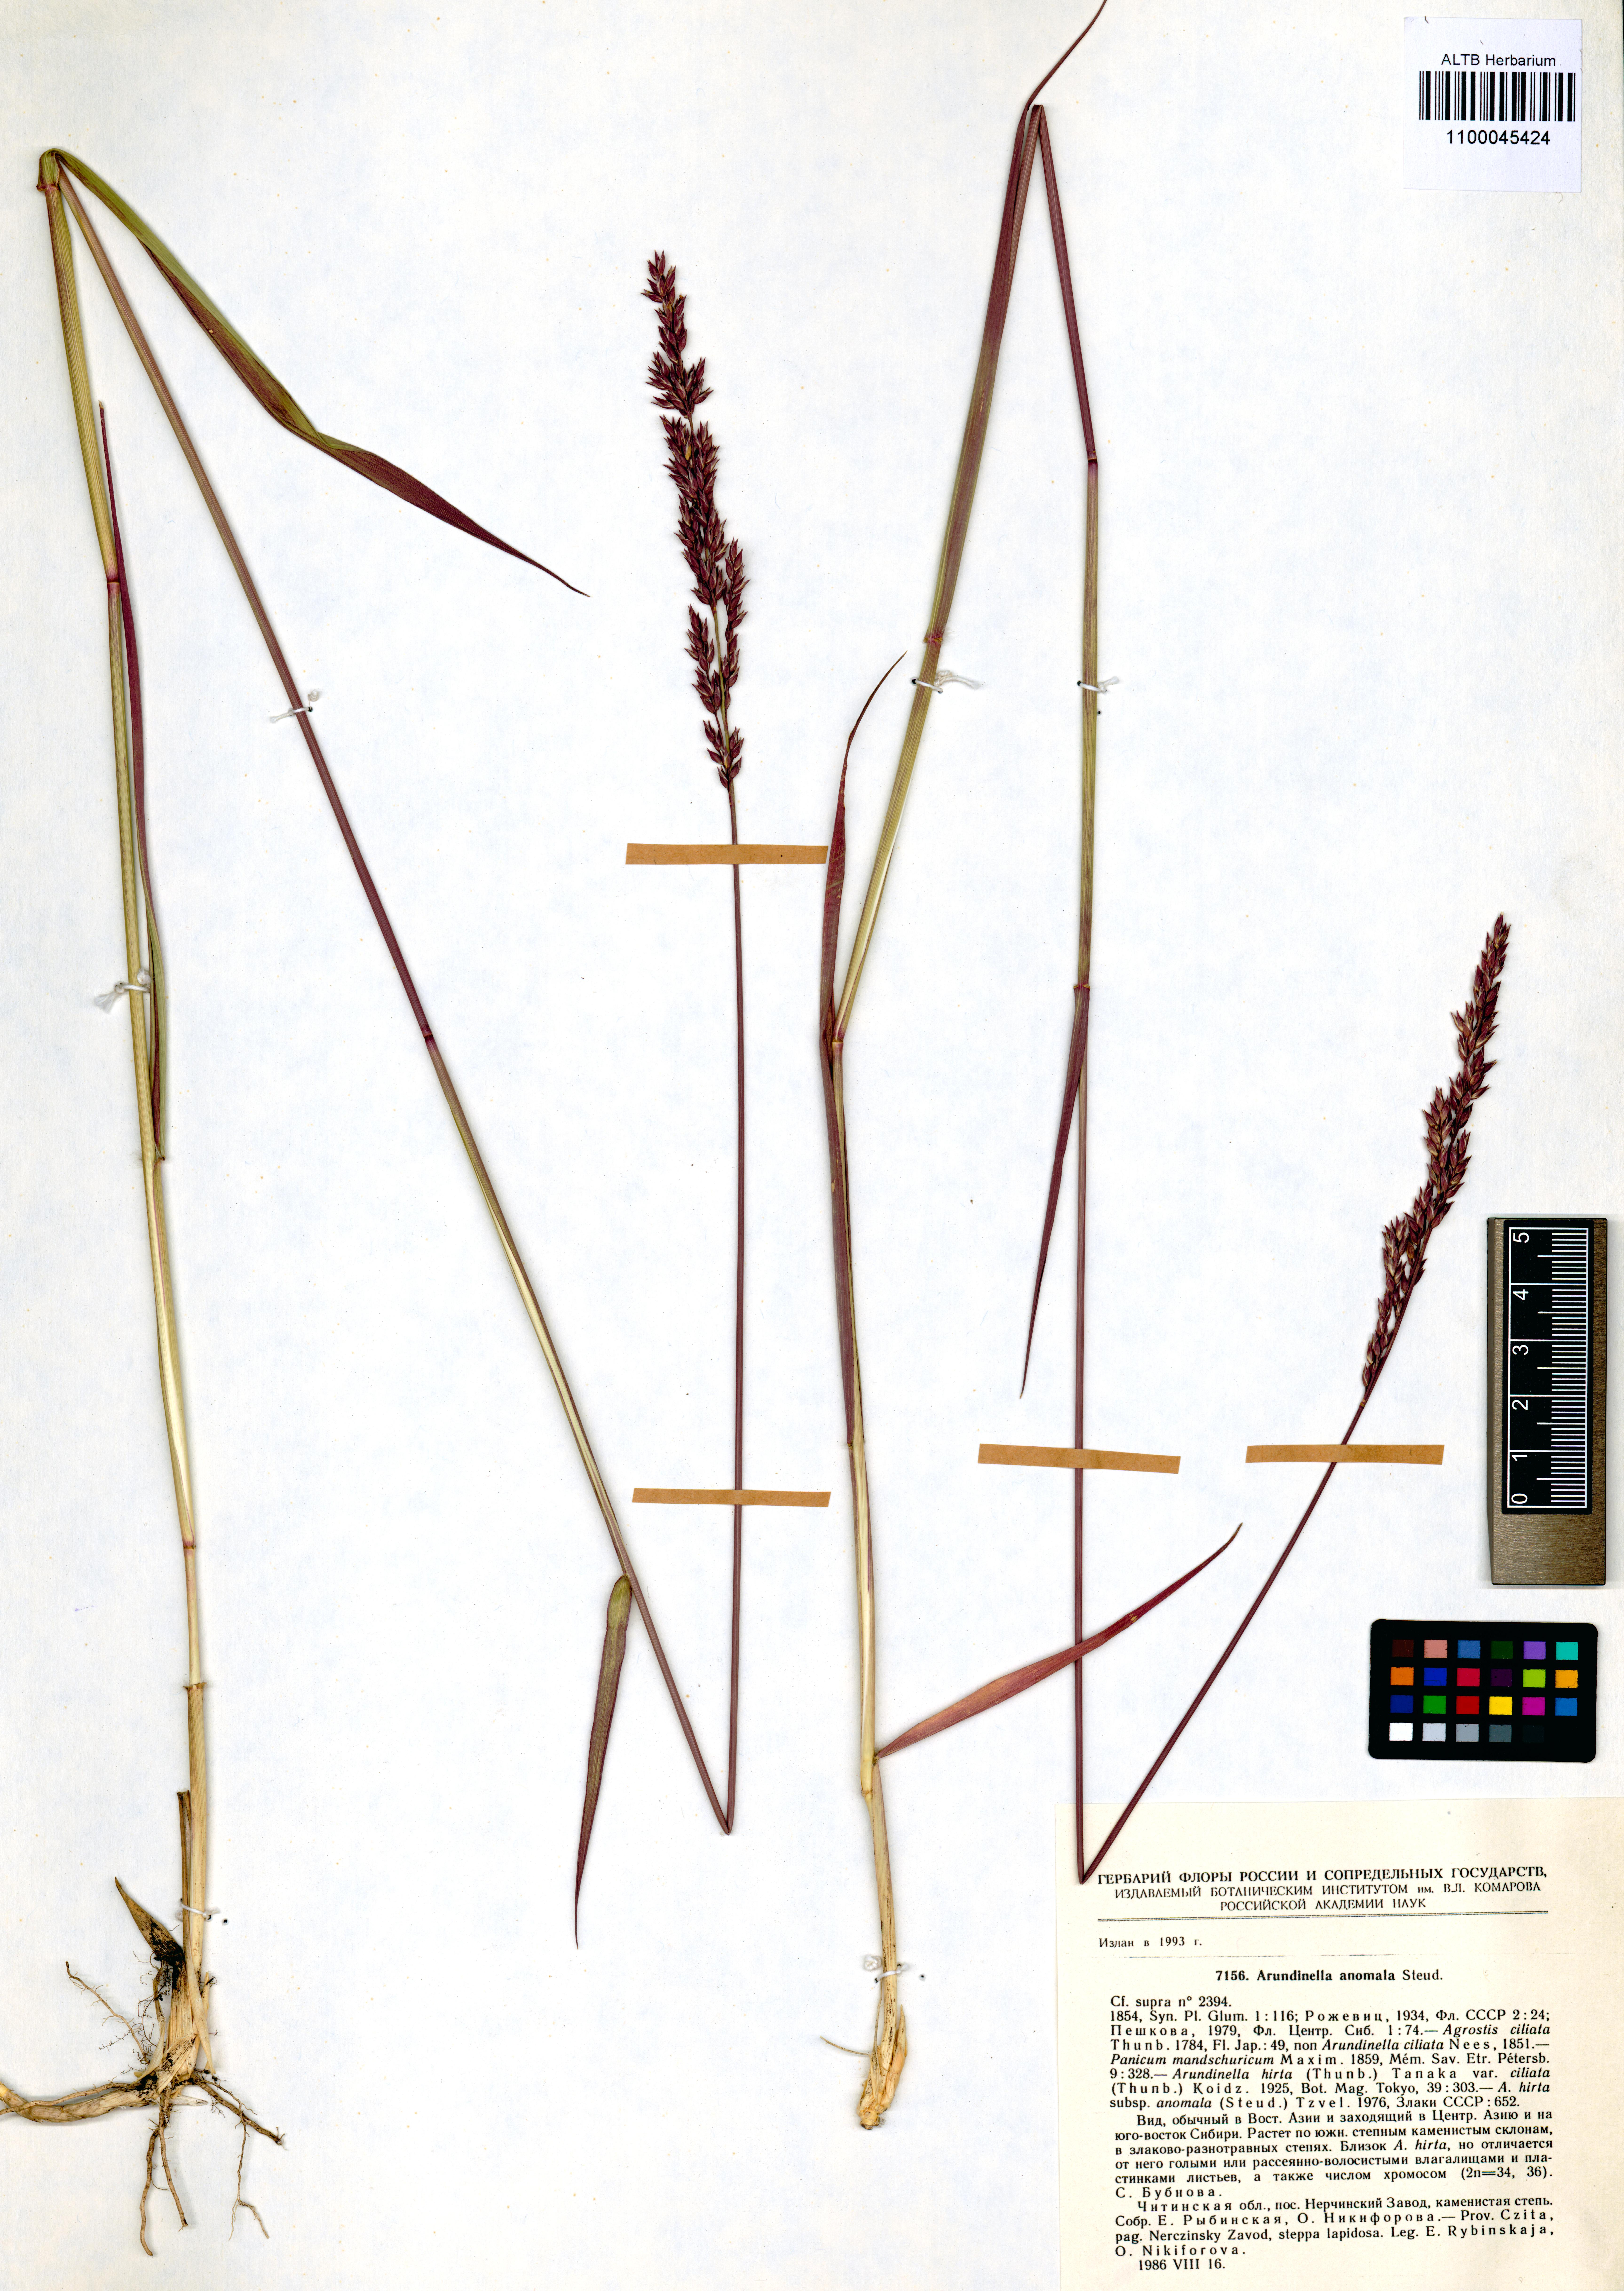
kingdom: Plantae
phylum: Tracheophyta
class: Liliopsida
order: Poales
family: Poaceae
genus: Arundinella
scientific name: Arundinella hirta
